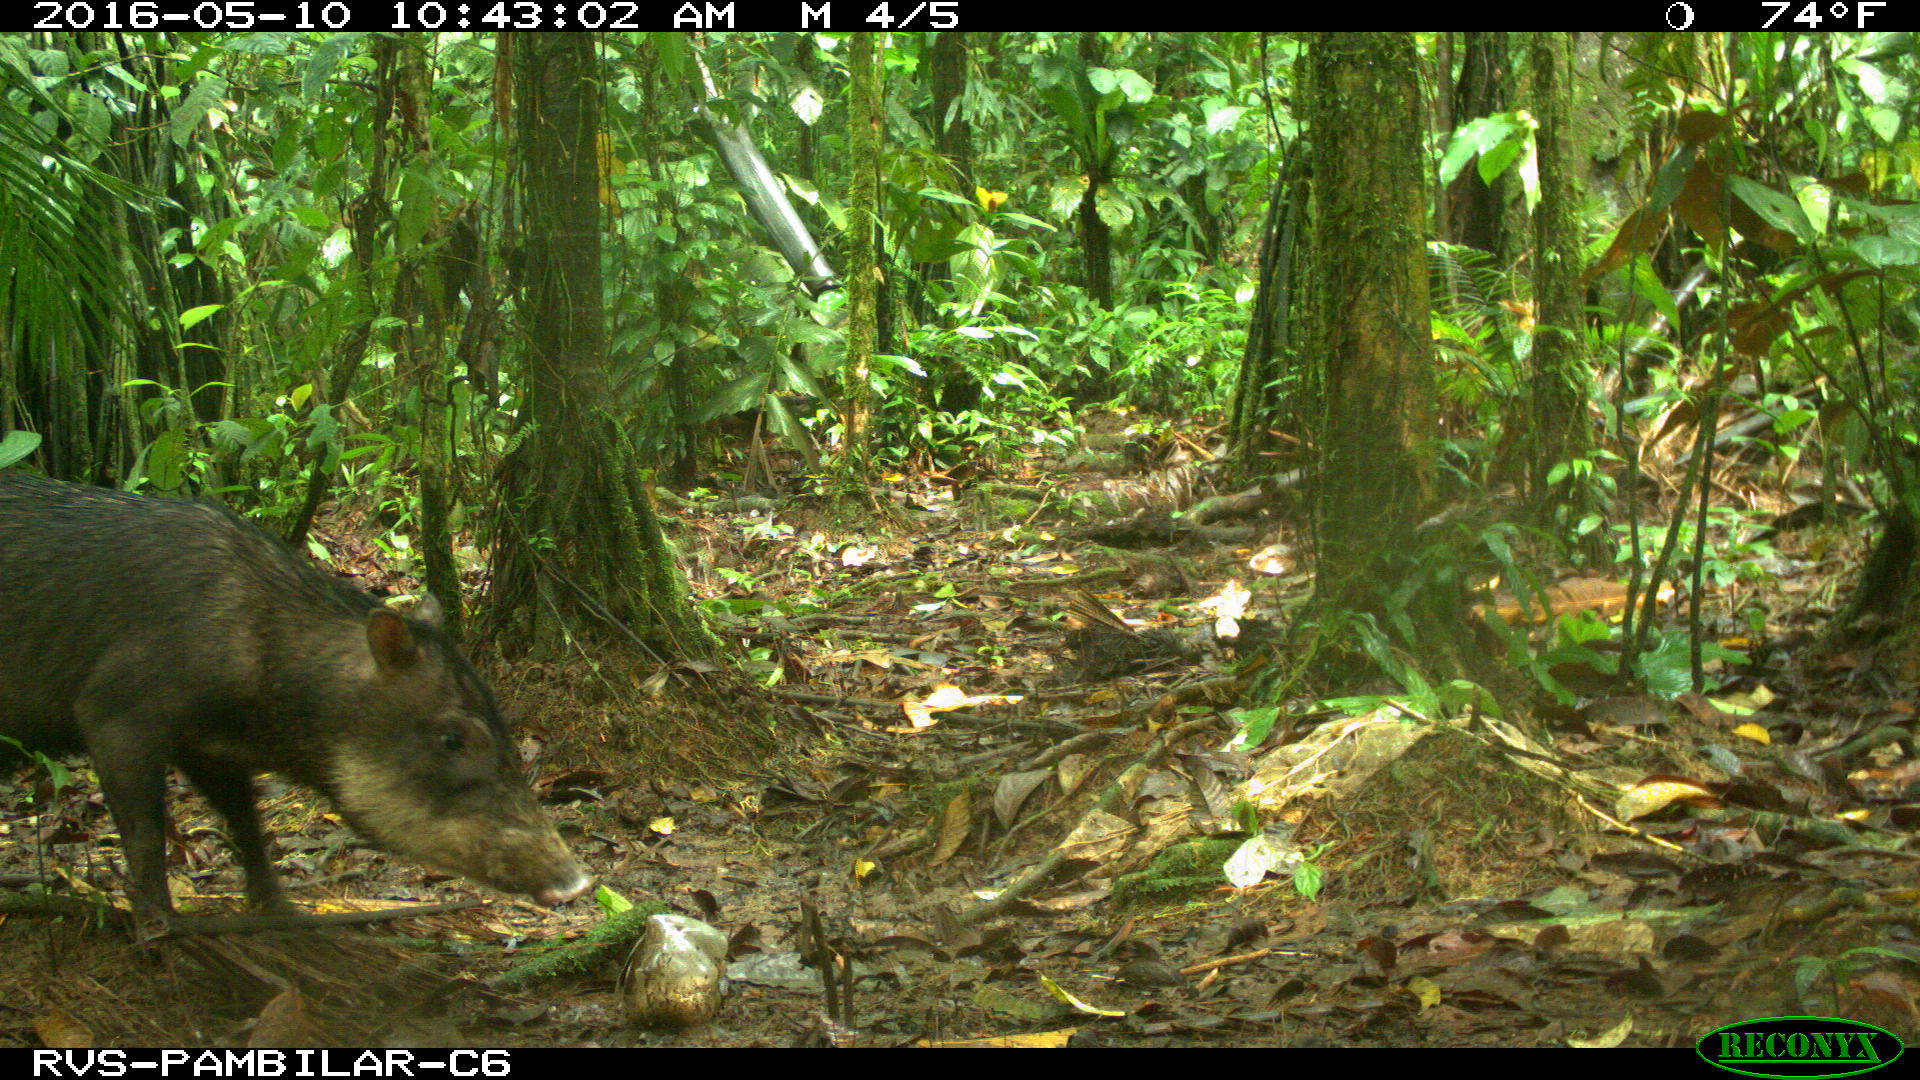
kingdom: Animalia
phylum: Chordata
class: Mammalia
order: Artiodactyla
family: Tayassuidae
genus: Tayassu
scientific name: Tayassu pecari
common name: White-lipped peccary
